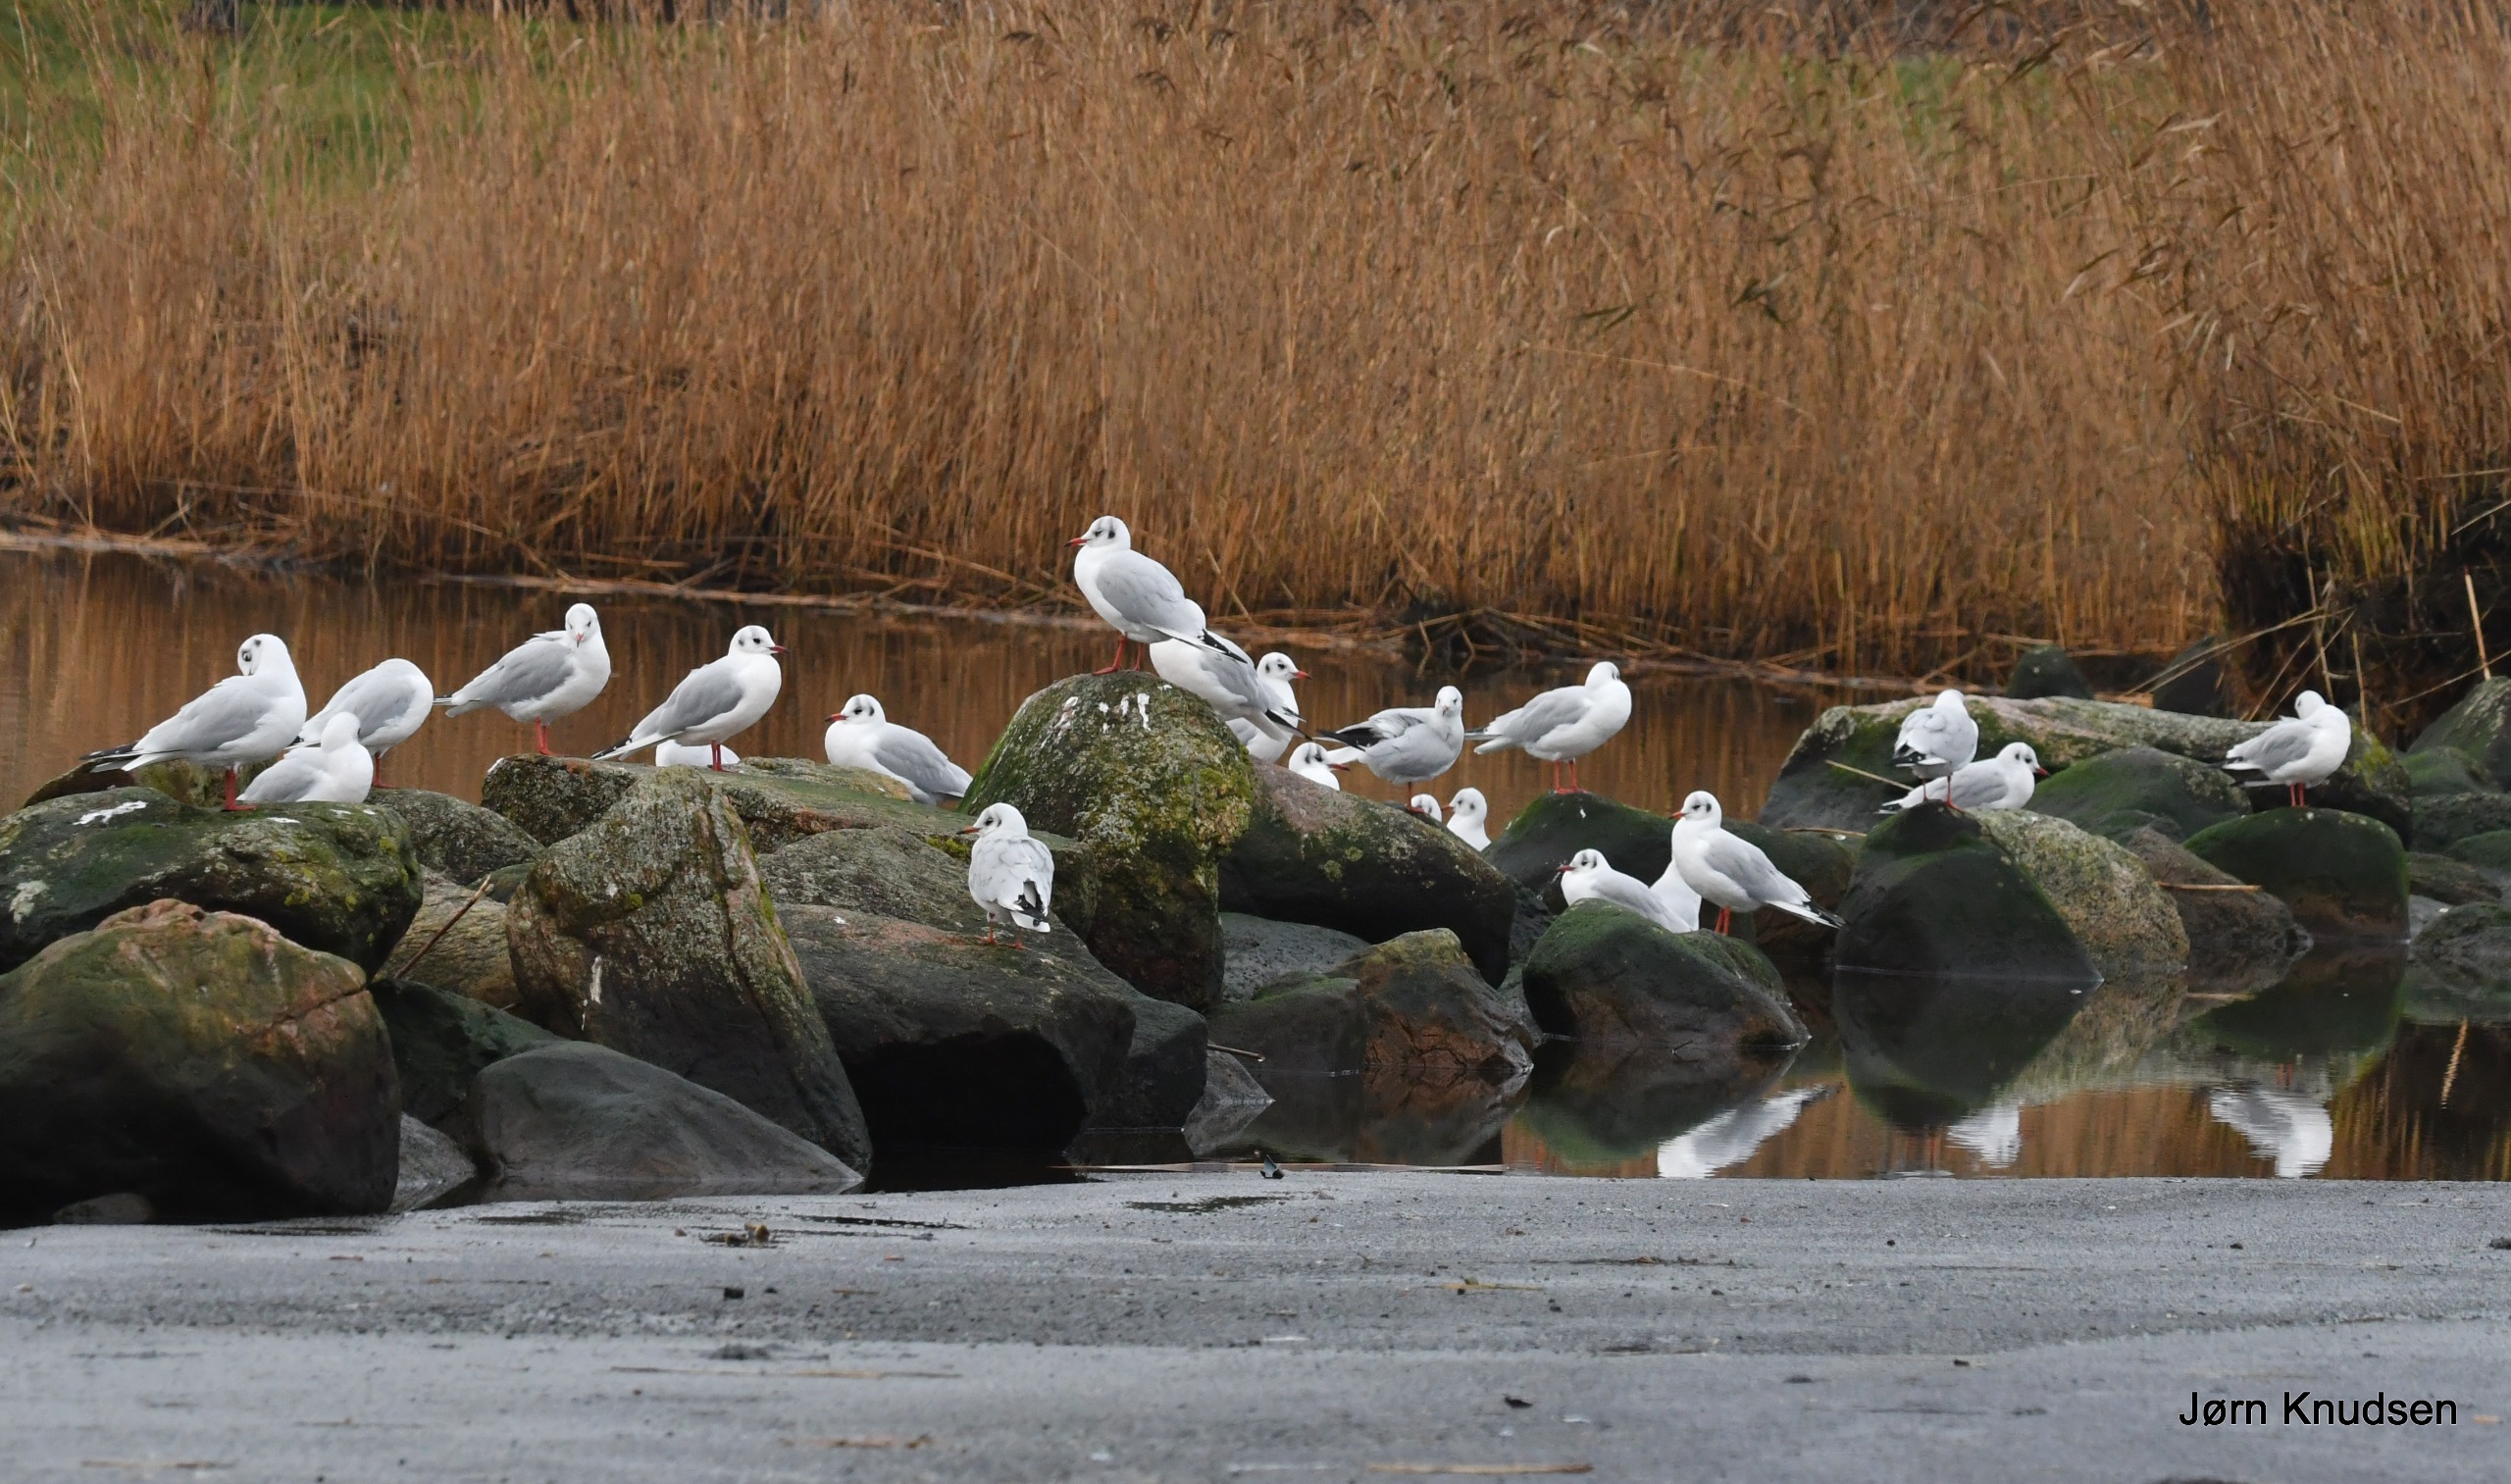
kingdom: Animalia
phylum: Chordata
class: Aves
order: Charadriiformes
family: Laridae
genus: Chroicocephalus
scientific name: Chroicocephalus ridibundus
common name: Hættemåge
